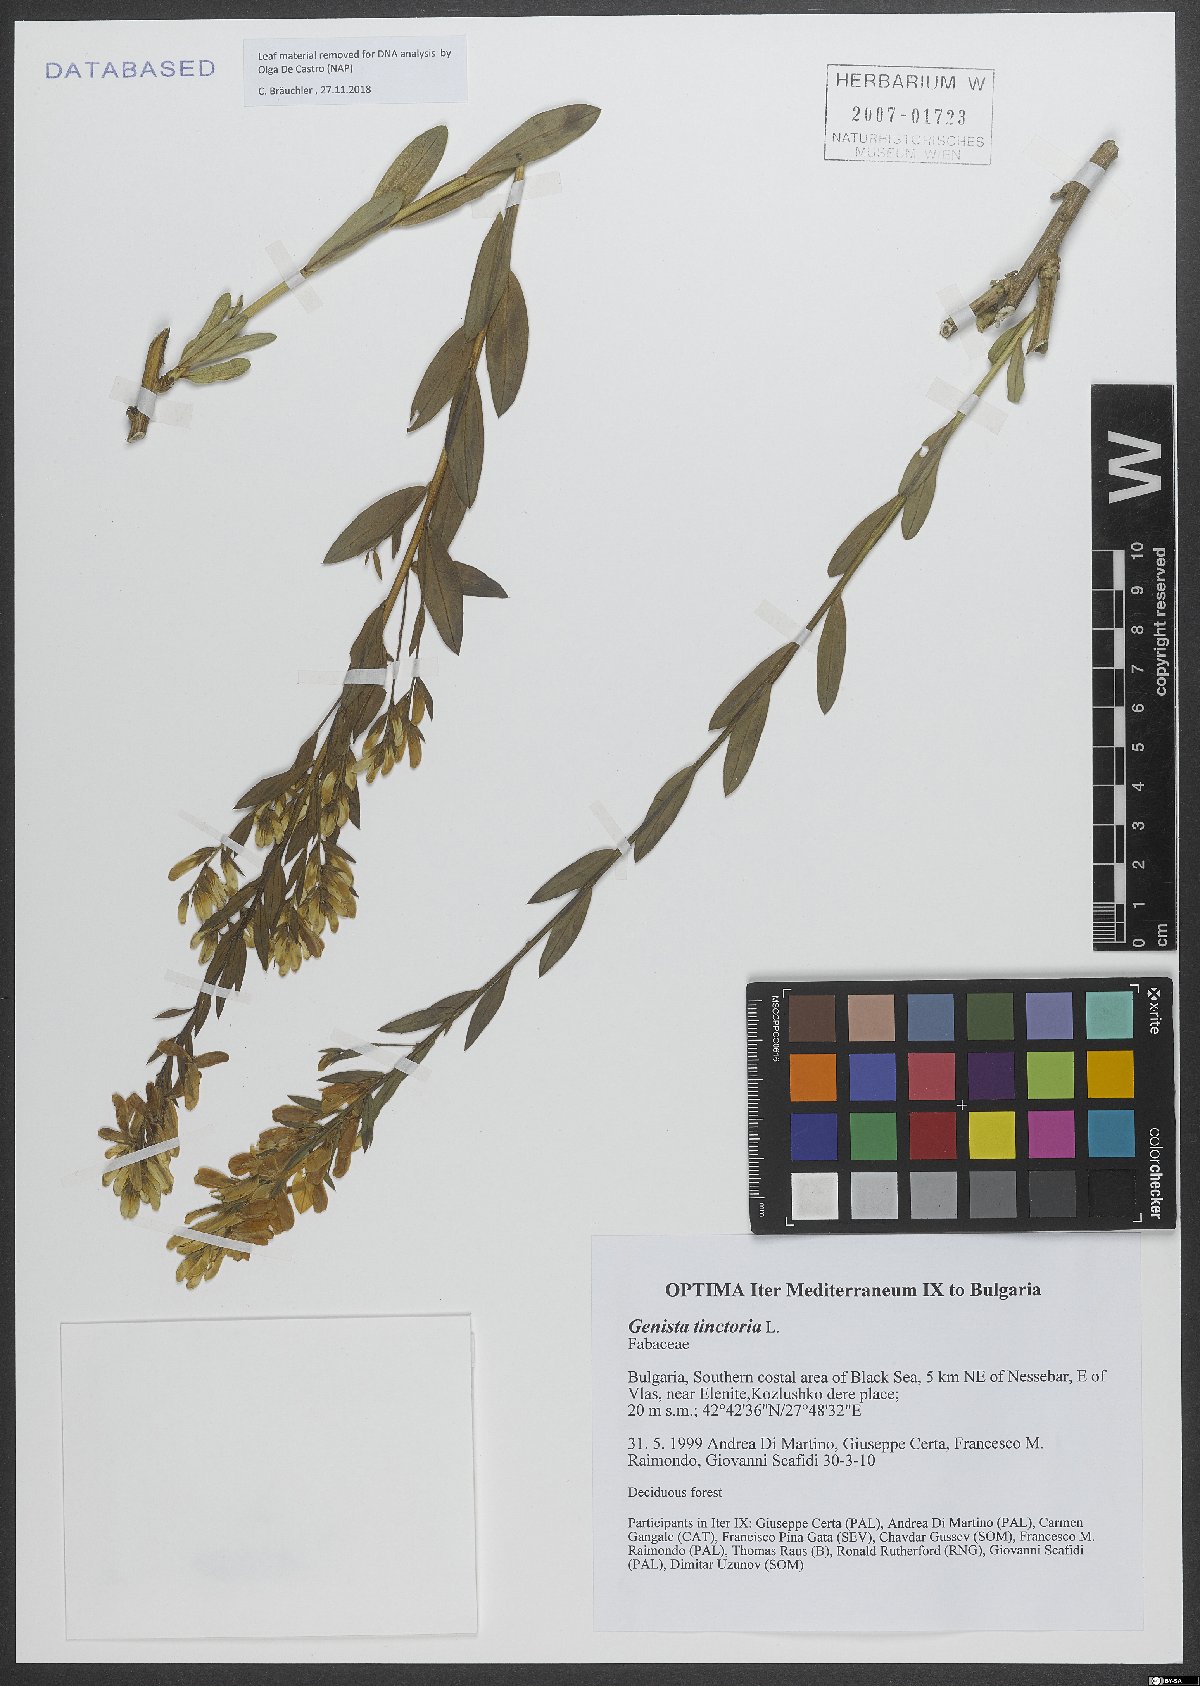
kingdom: Plantae
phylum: Tracheophyta
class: Magnoliopsida
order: Fabales
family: Fabaceae
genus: Genista
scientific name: Genista tinctoria
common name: Dyer's greenweed
